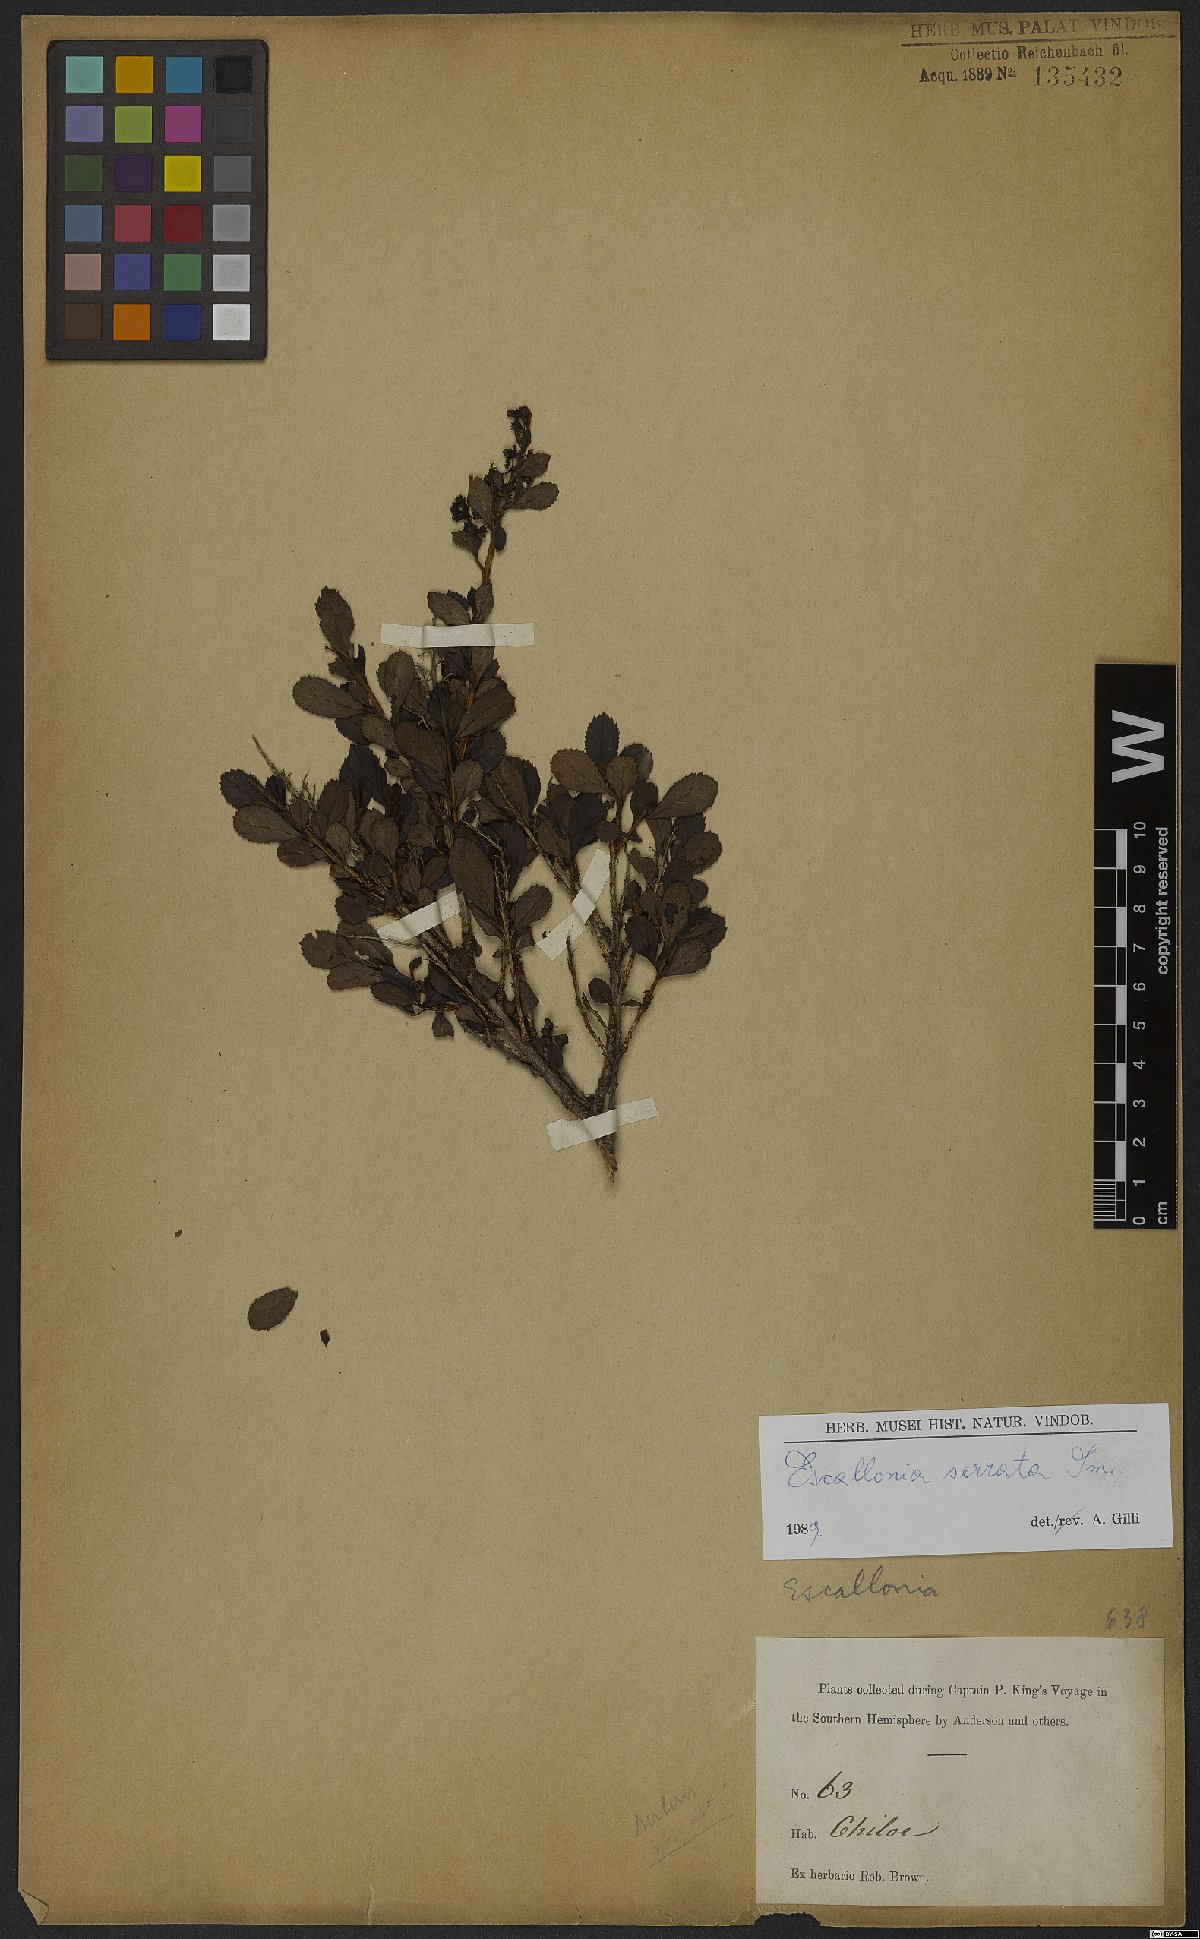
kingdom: Plantae
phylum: Tracheophyta
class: Magnoliopsida
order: Escalloniales
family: Escalloniaceae
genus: Escallonia
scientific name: Escallonia serrata
